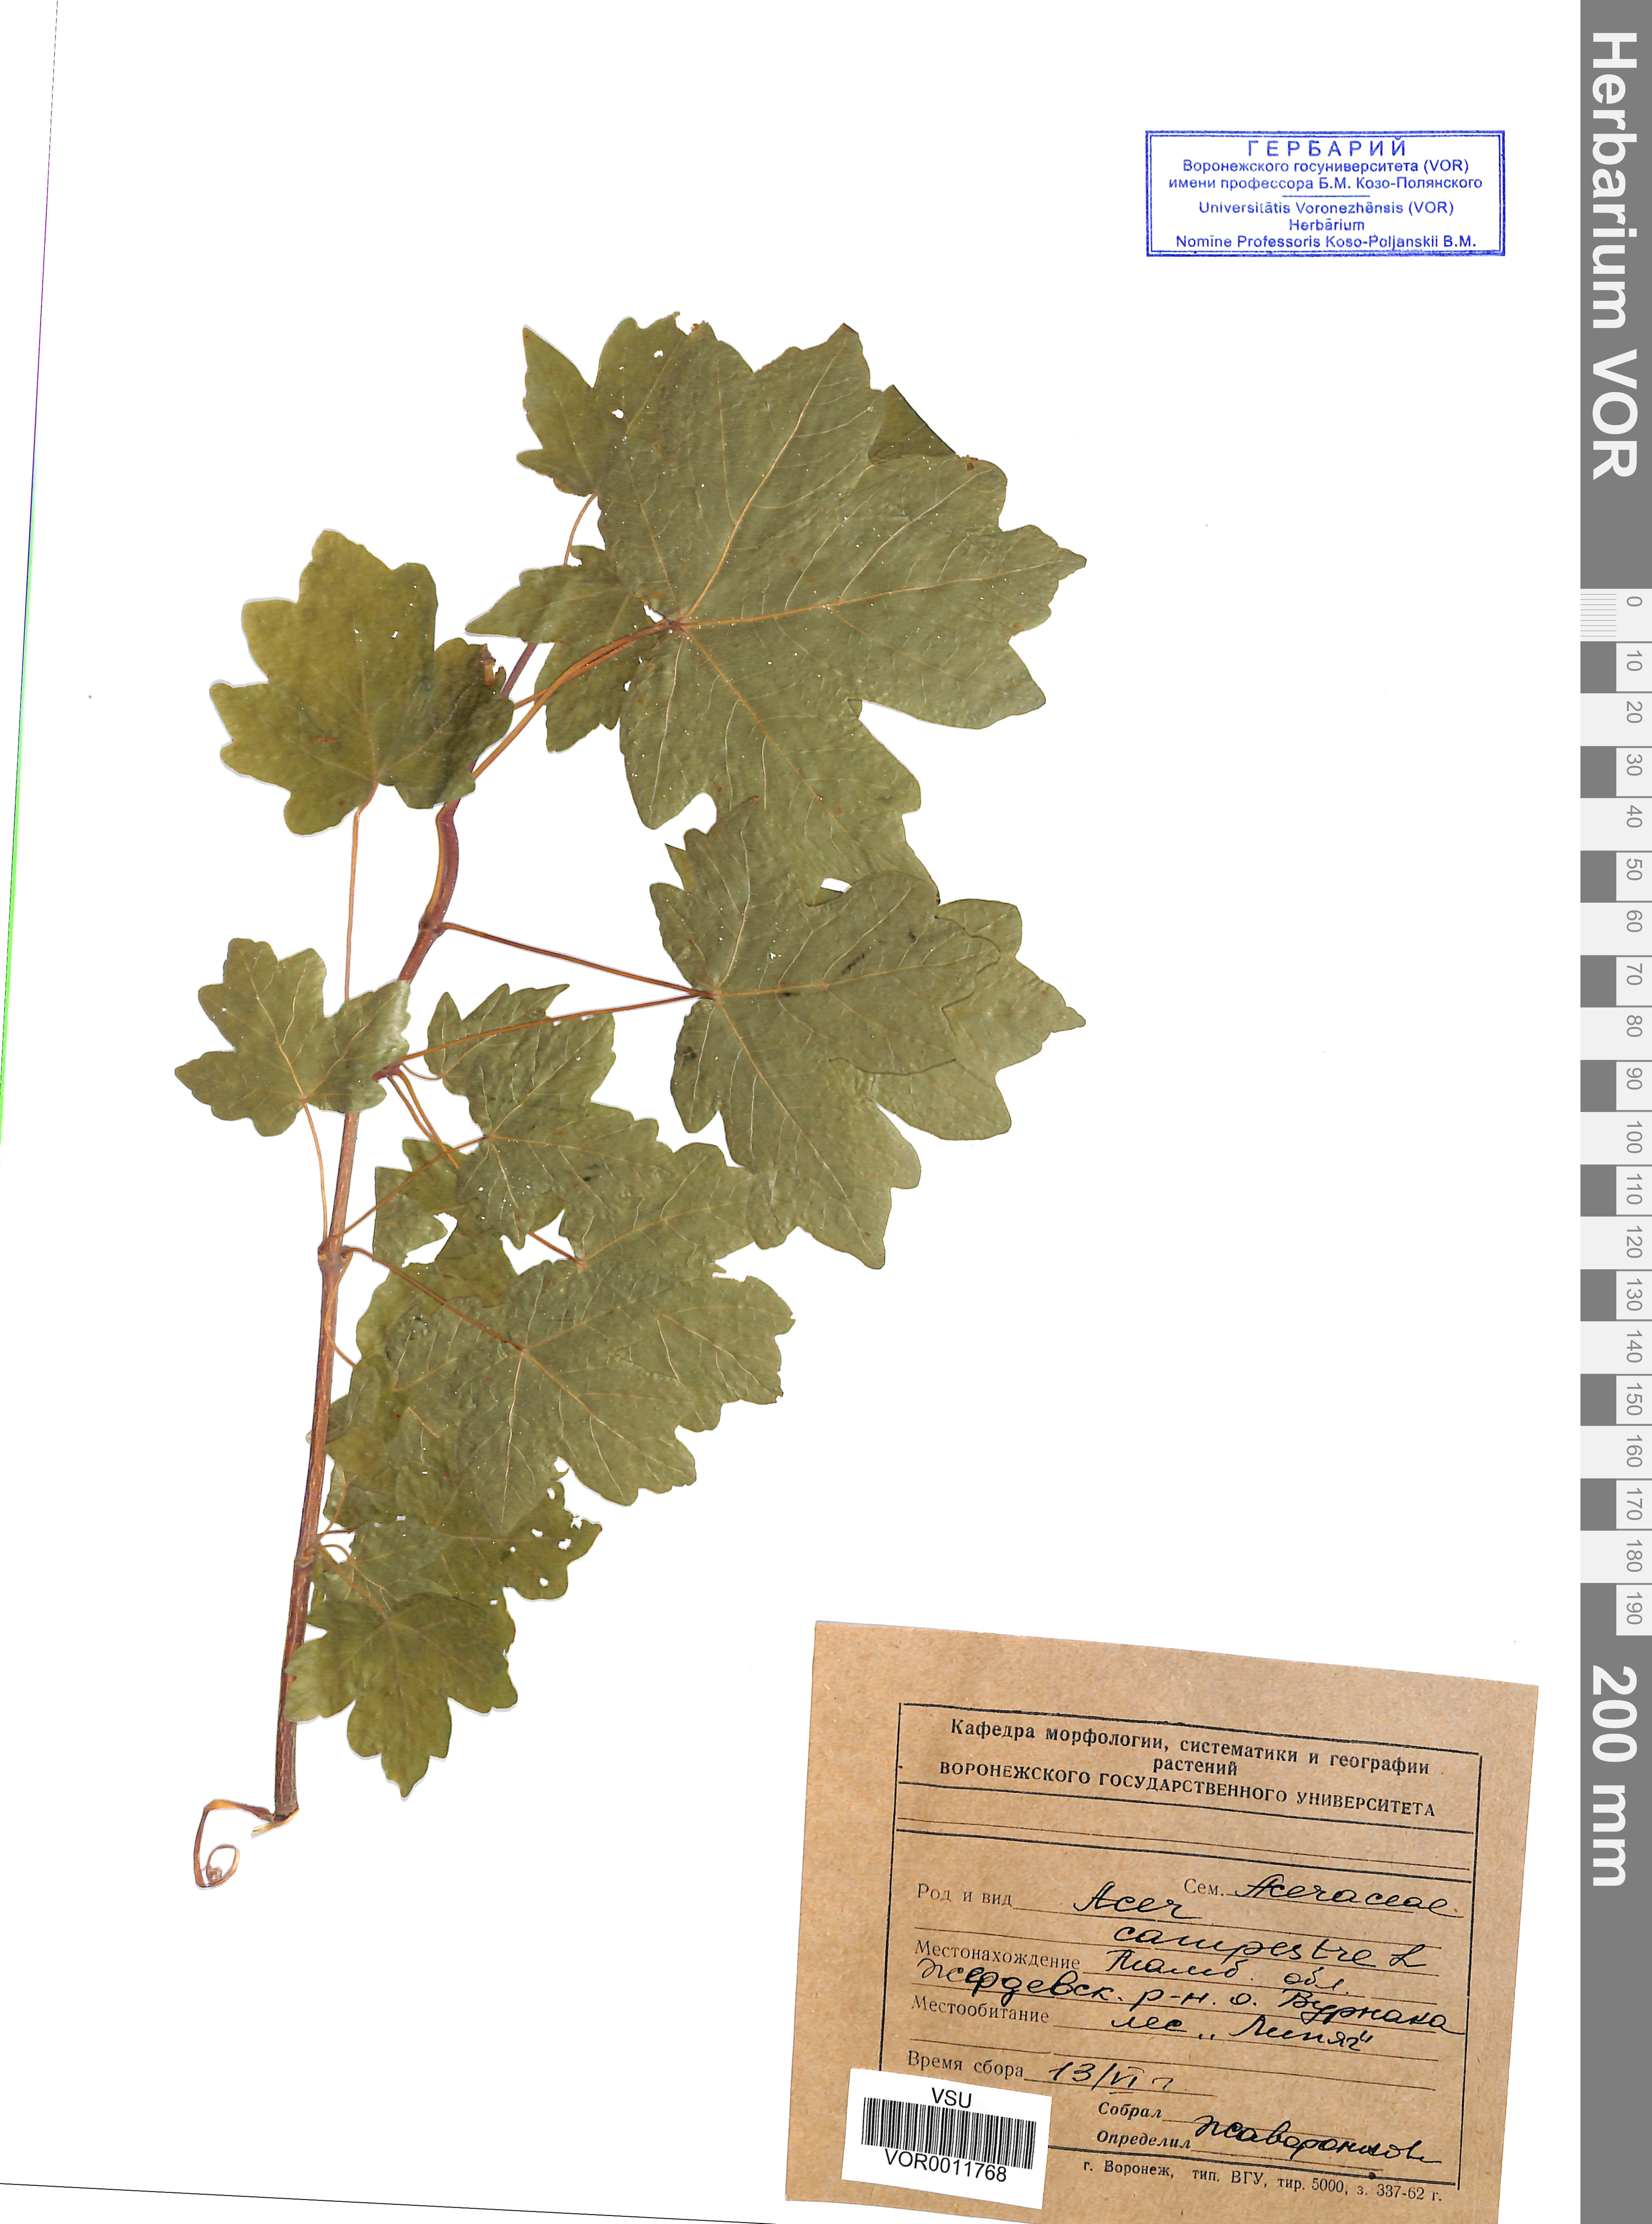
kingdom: Plantae
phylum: Tracheophyta
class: Magnoliopsida
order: Sapindales
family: Sapindaceae
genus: Acer
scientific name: Acer campestre
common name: Field maple
